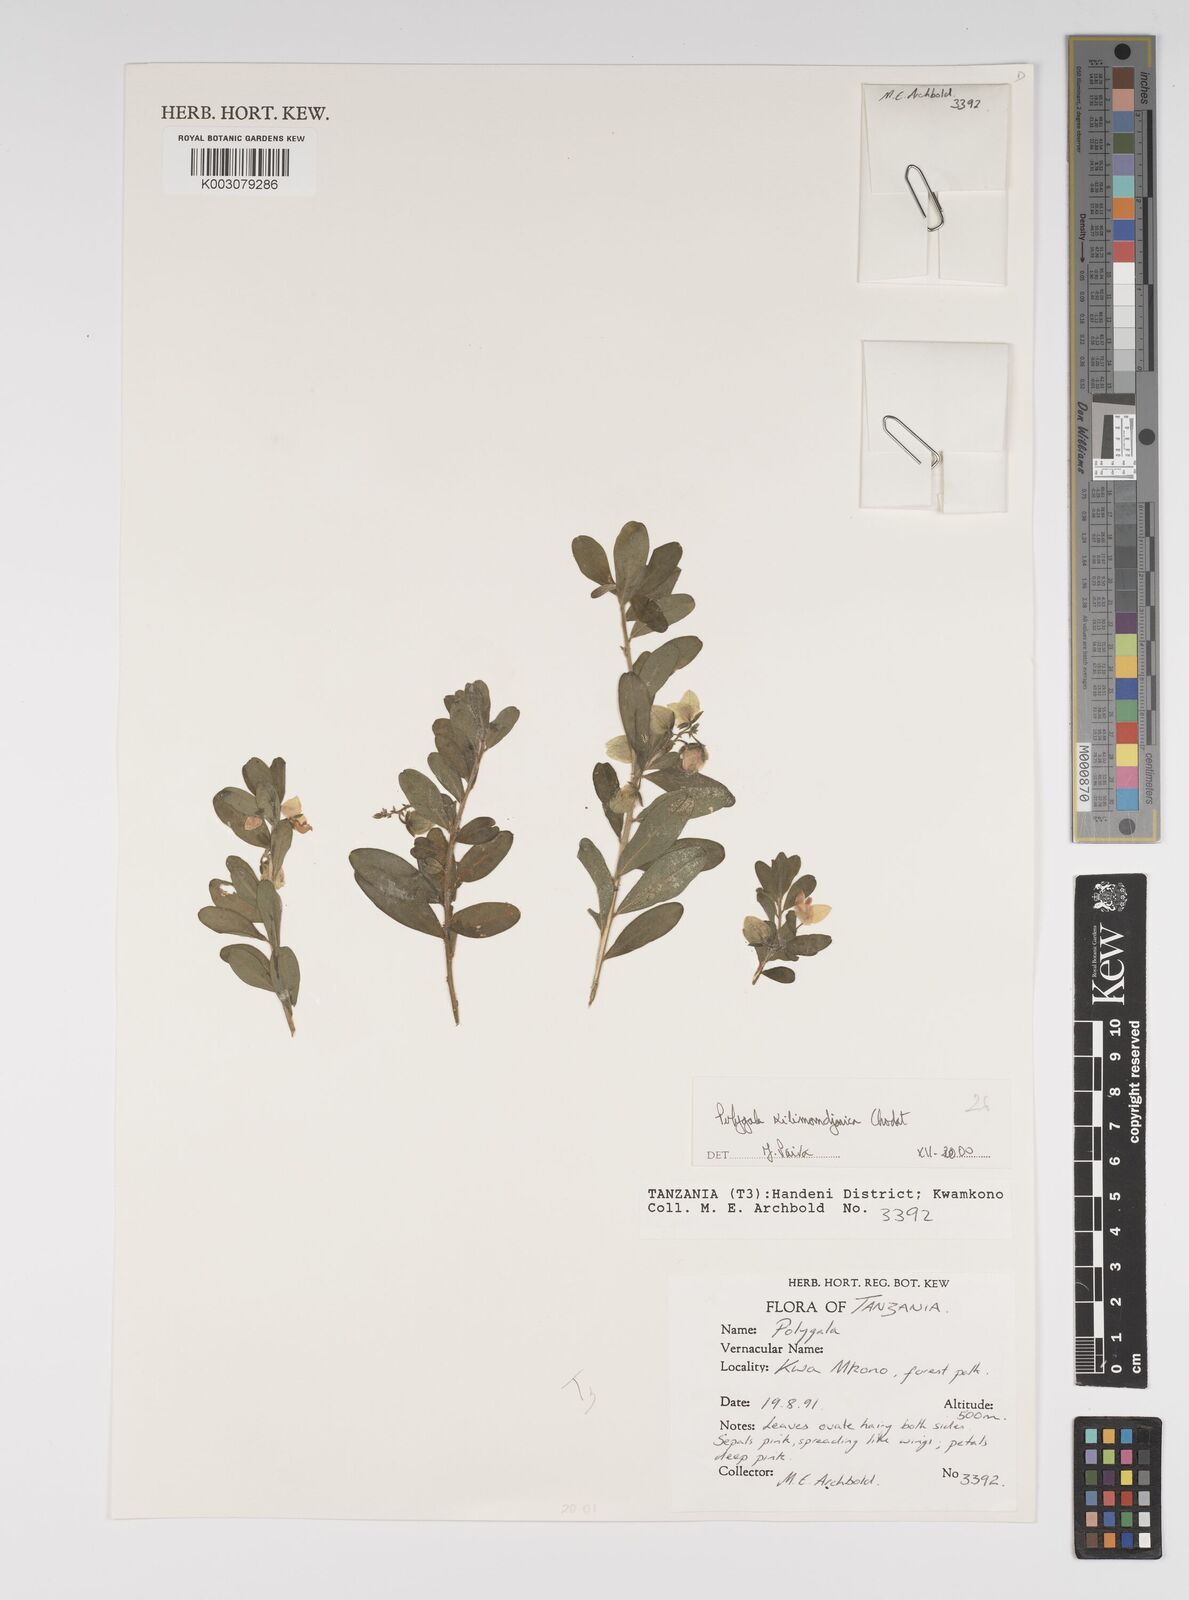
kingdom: Plantae
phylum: Tracheophyta
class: Magnoliopsida
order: Fabales
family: Polygalaceae
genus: Polygala
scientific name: Polygala kilimandjarica
